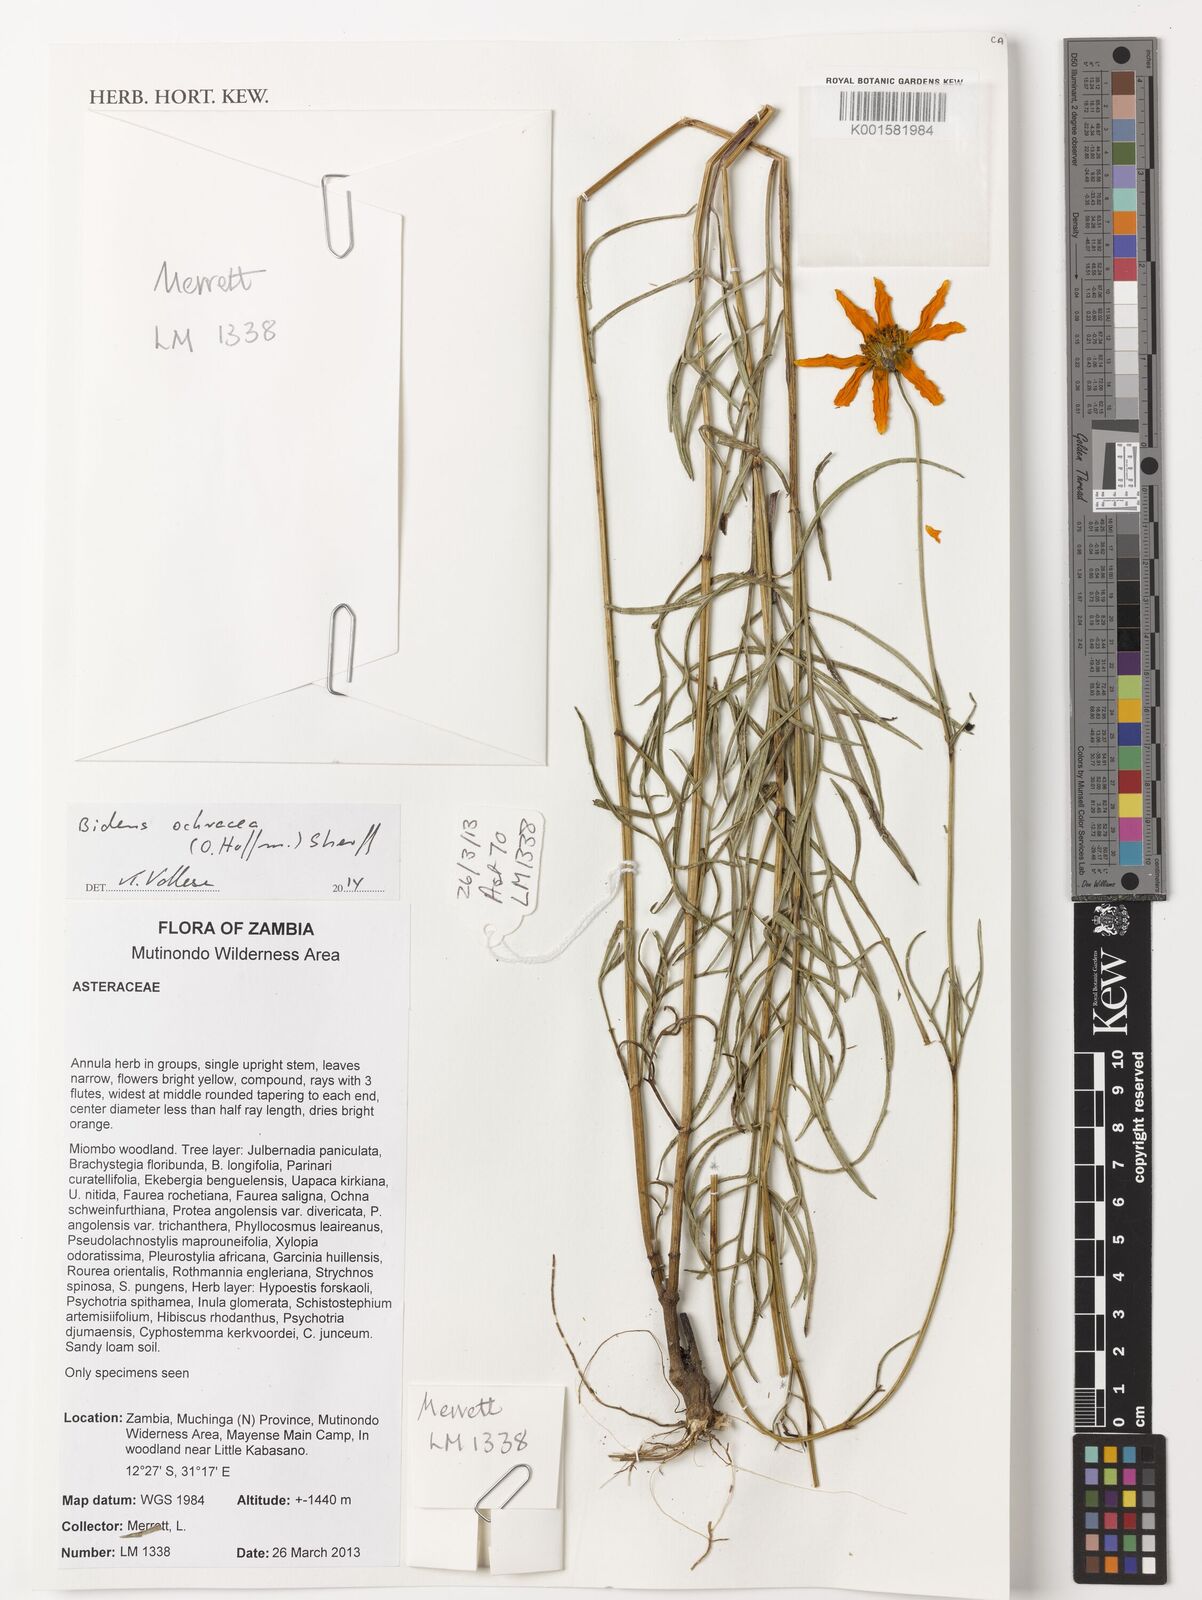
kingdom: Plantae
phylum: Tracheophyta
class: Magnoliopsida
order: Asterales
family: Asteraceae
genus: Bidens
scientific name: Bidens ochracea
